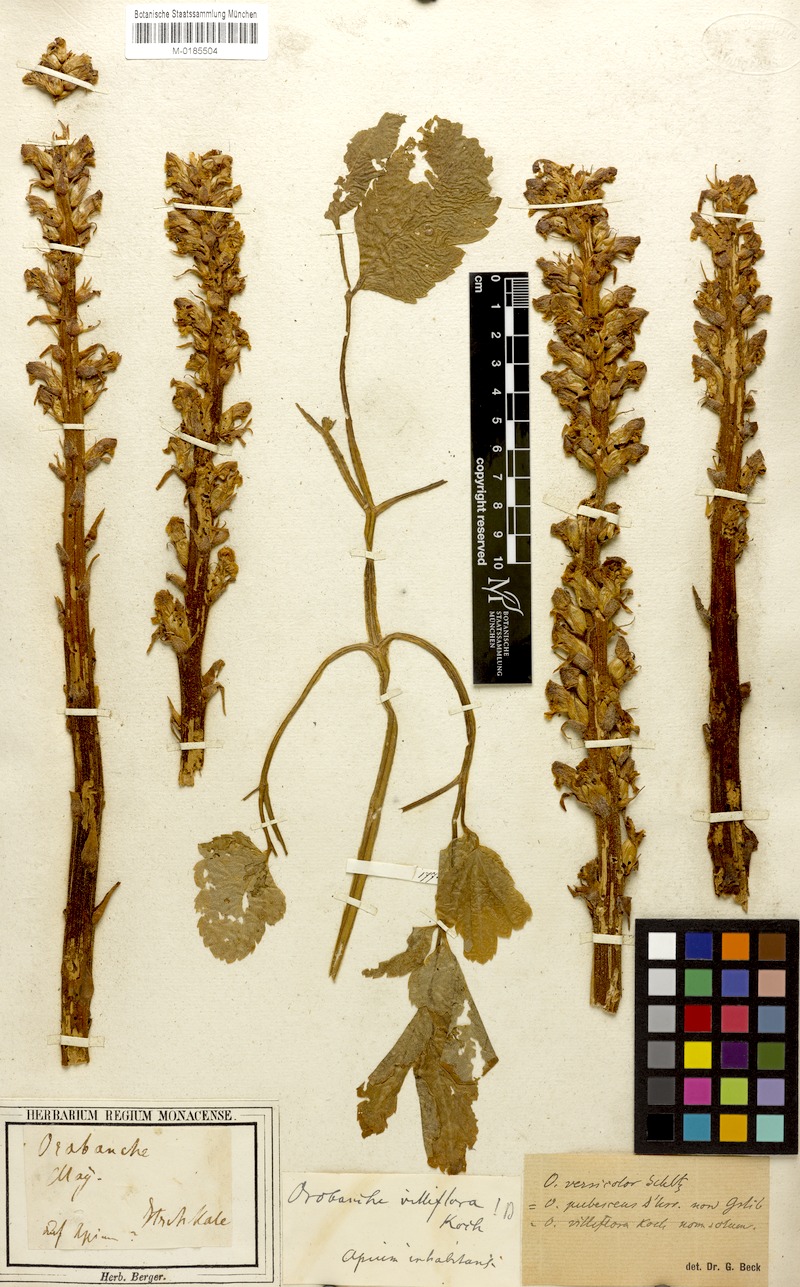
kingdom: Plantae
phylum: Tracheophyta
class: Magnoliopsida
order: Lamiales
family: Orobanchaceae
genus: Orobanche
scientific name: Orobanche pubescens
